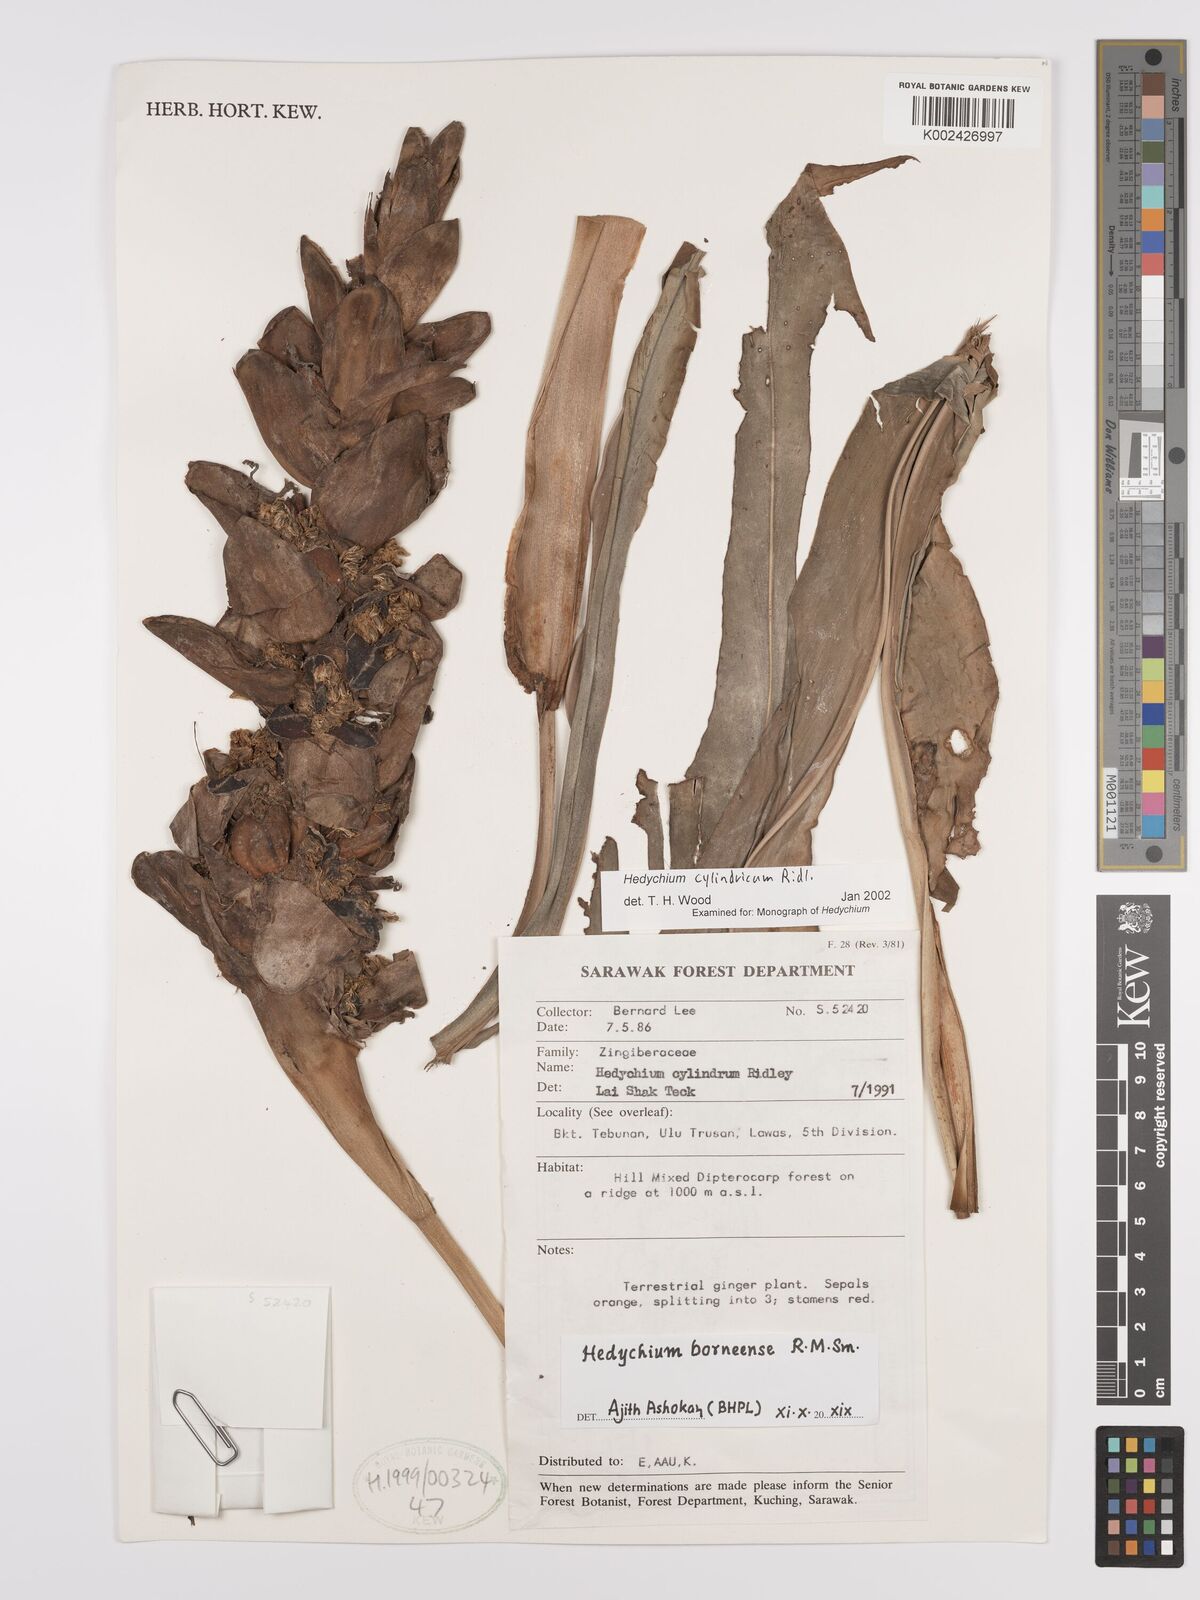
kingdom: Plantae
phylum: Tracheophyta
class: Liliopsida
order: Zingiberales
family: Zingiberaceae
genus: Hedychium
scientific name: Hedychium cylindricum
